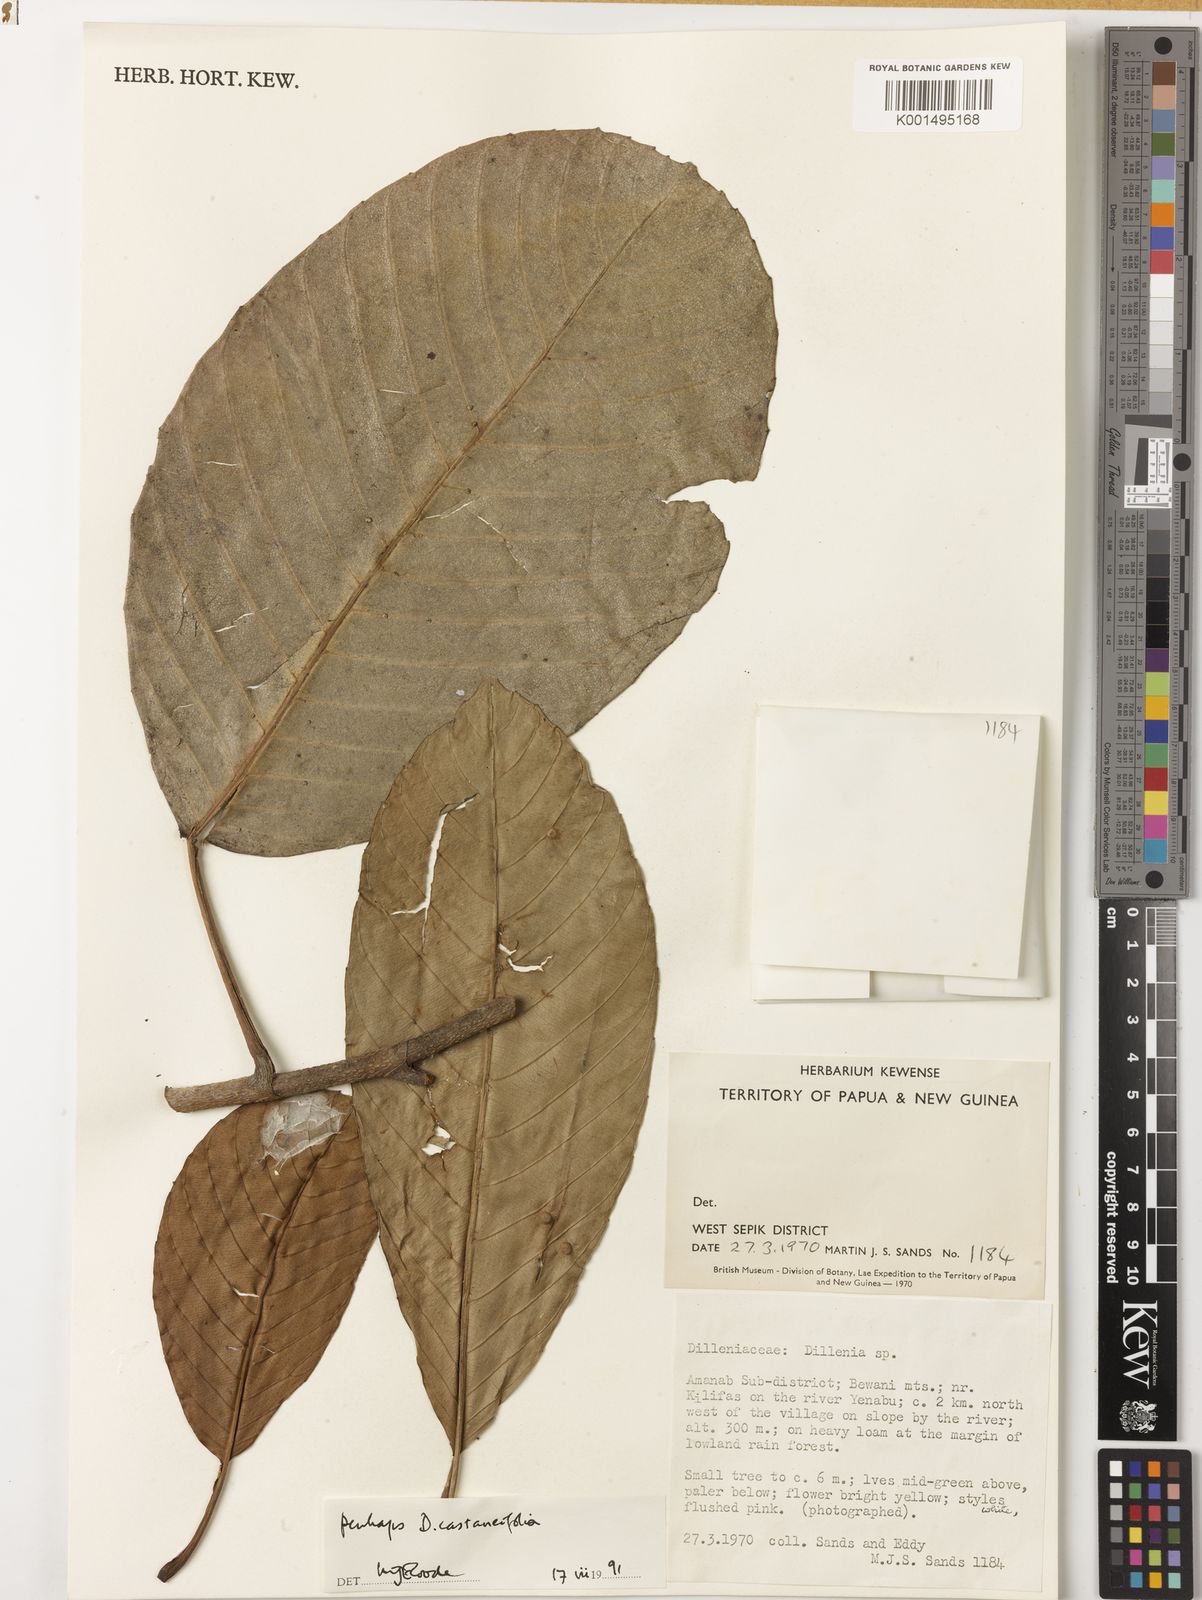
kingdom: Plantae
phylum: Tracheophyta
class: Magnoliopsida
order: Dilleniales
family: Dilleniaceae
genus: Dillenia
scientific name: Dillenia
